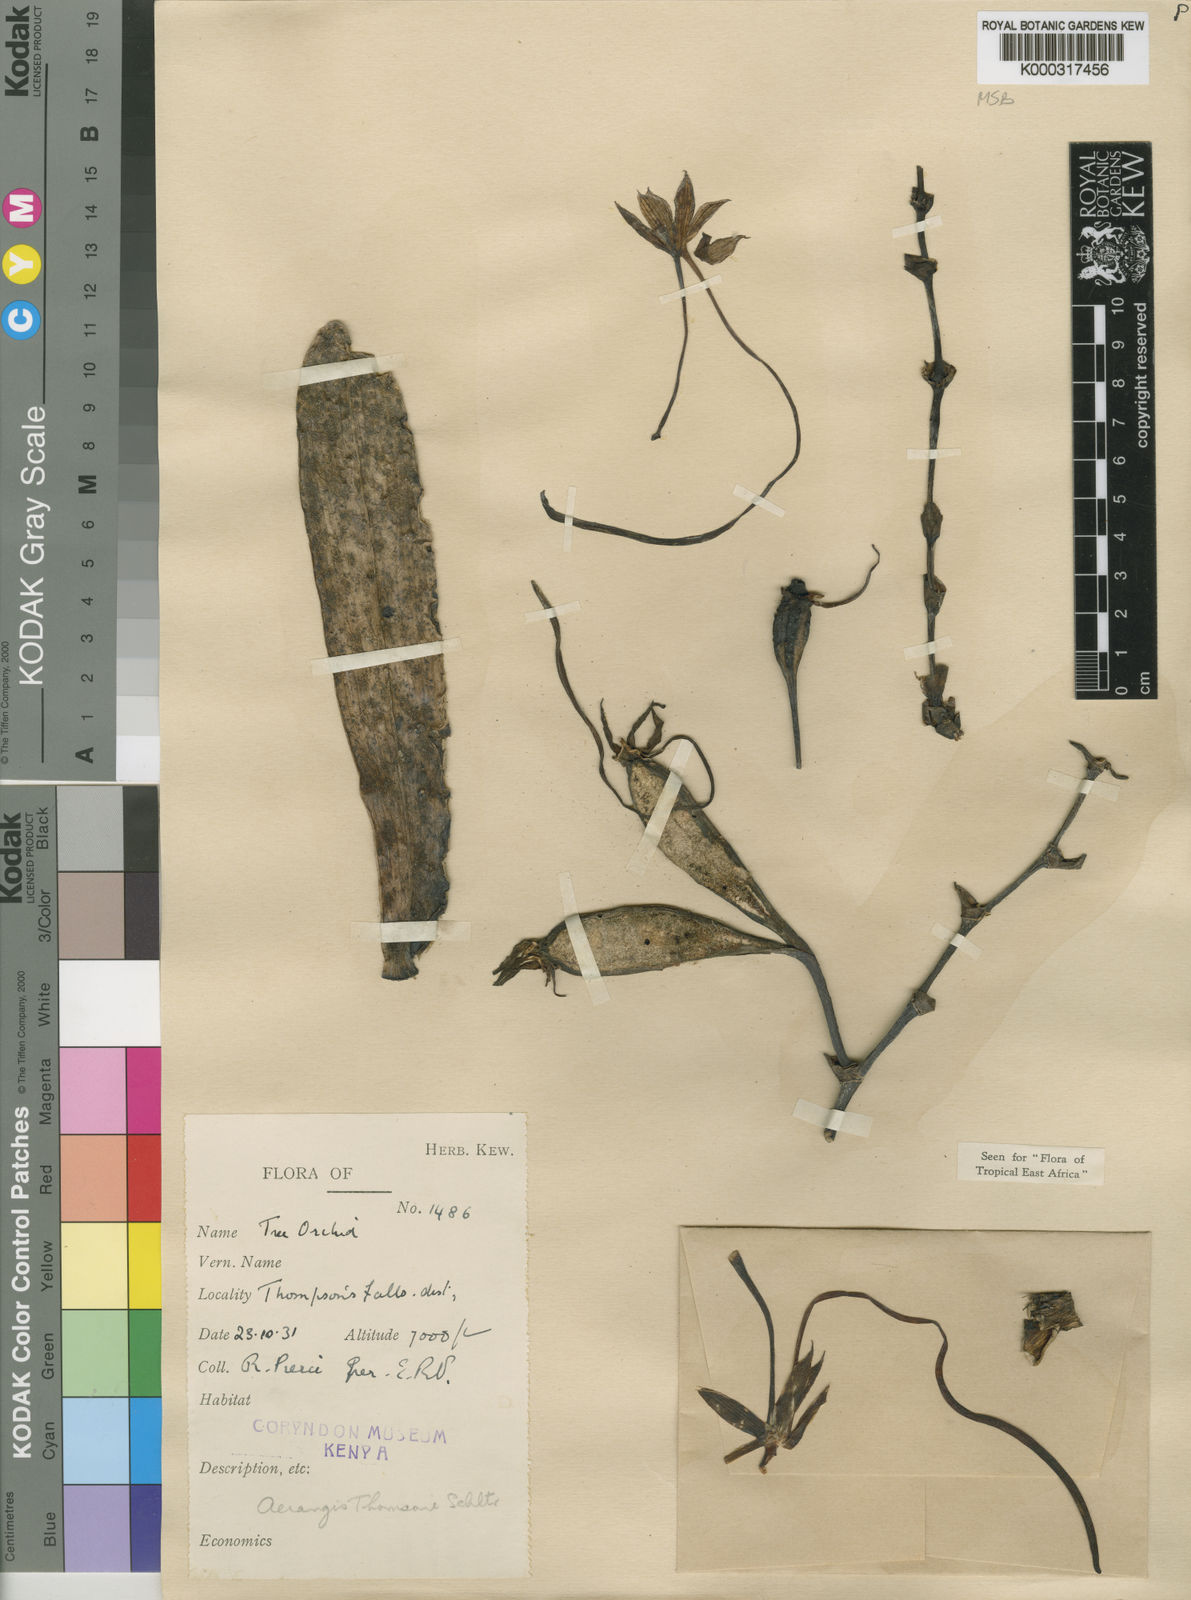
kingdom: Plantae
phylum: Tracheophyta
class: Liliopsida
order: Asparagales
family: Orchidaceae
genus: Aerangis
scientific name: Aerangis thomsonii
